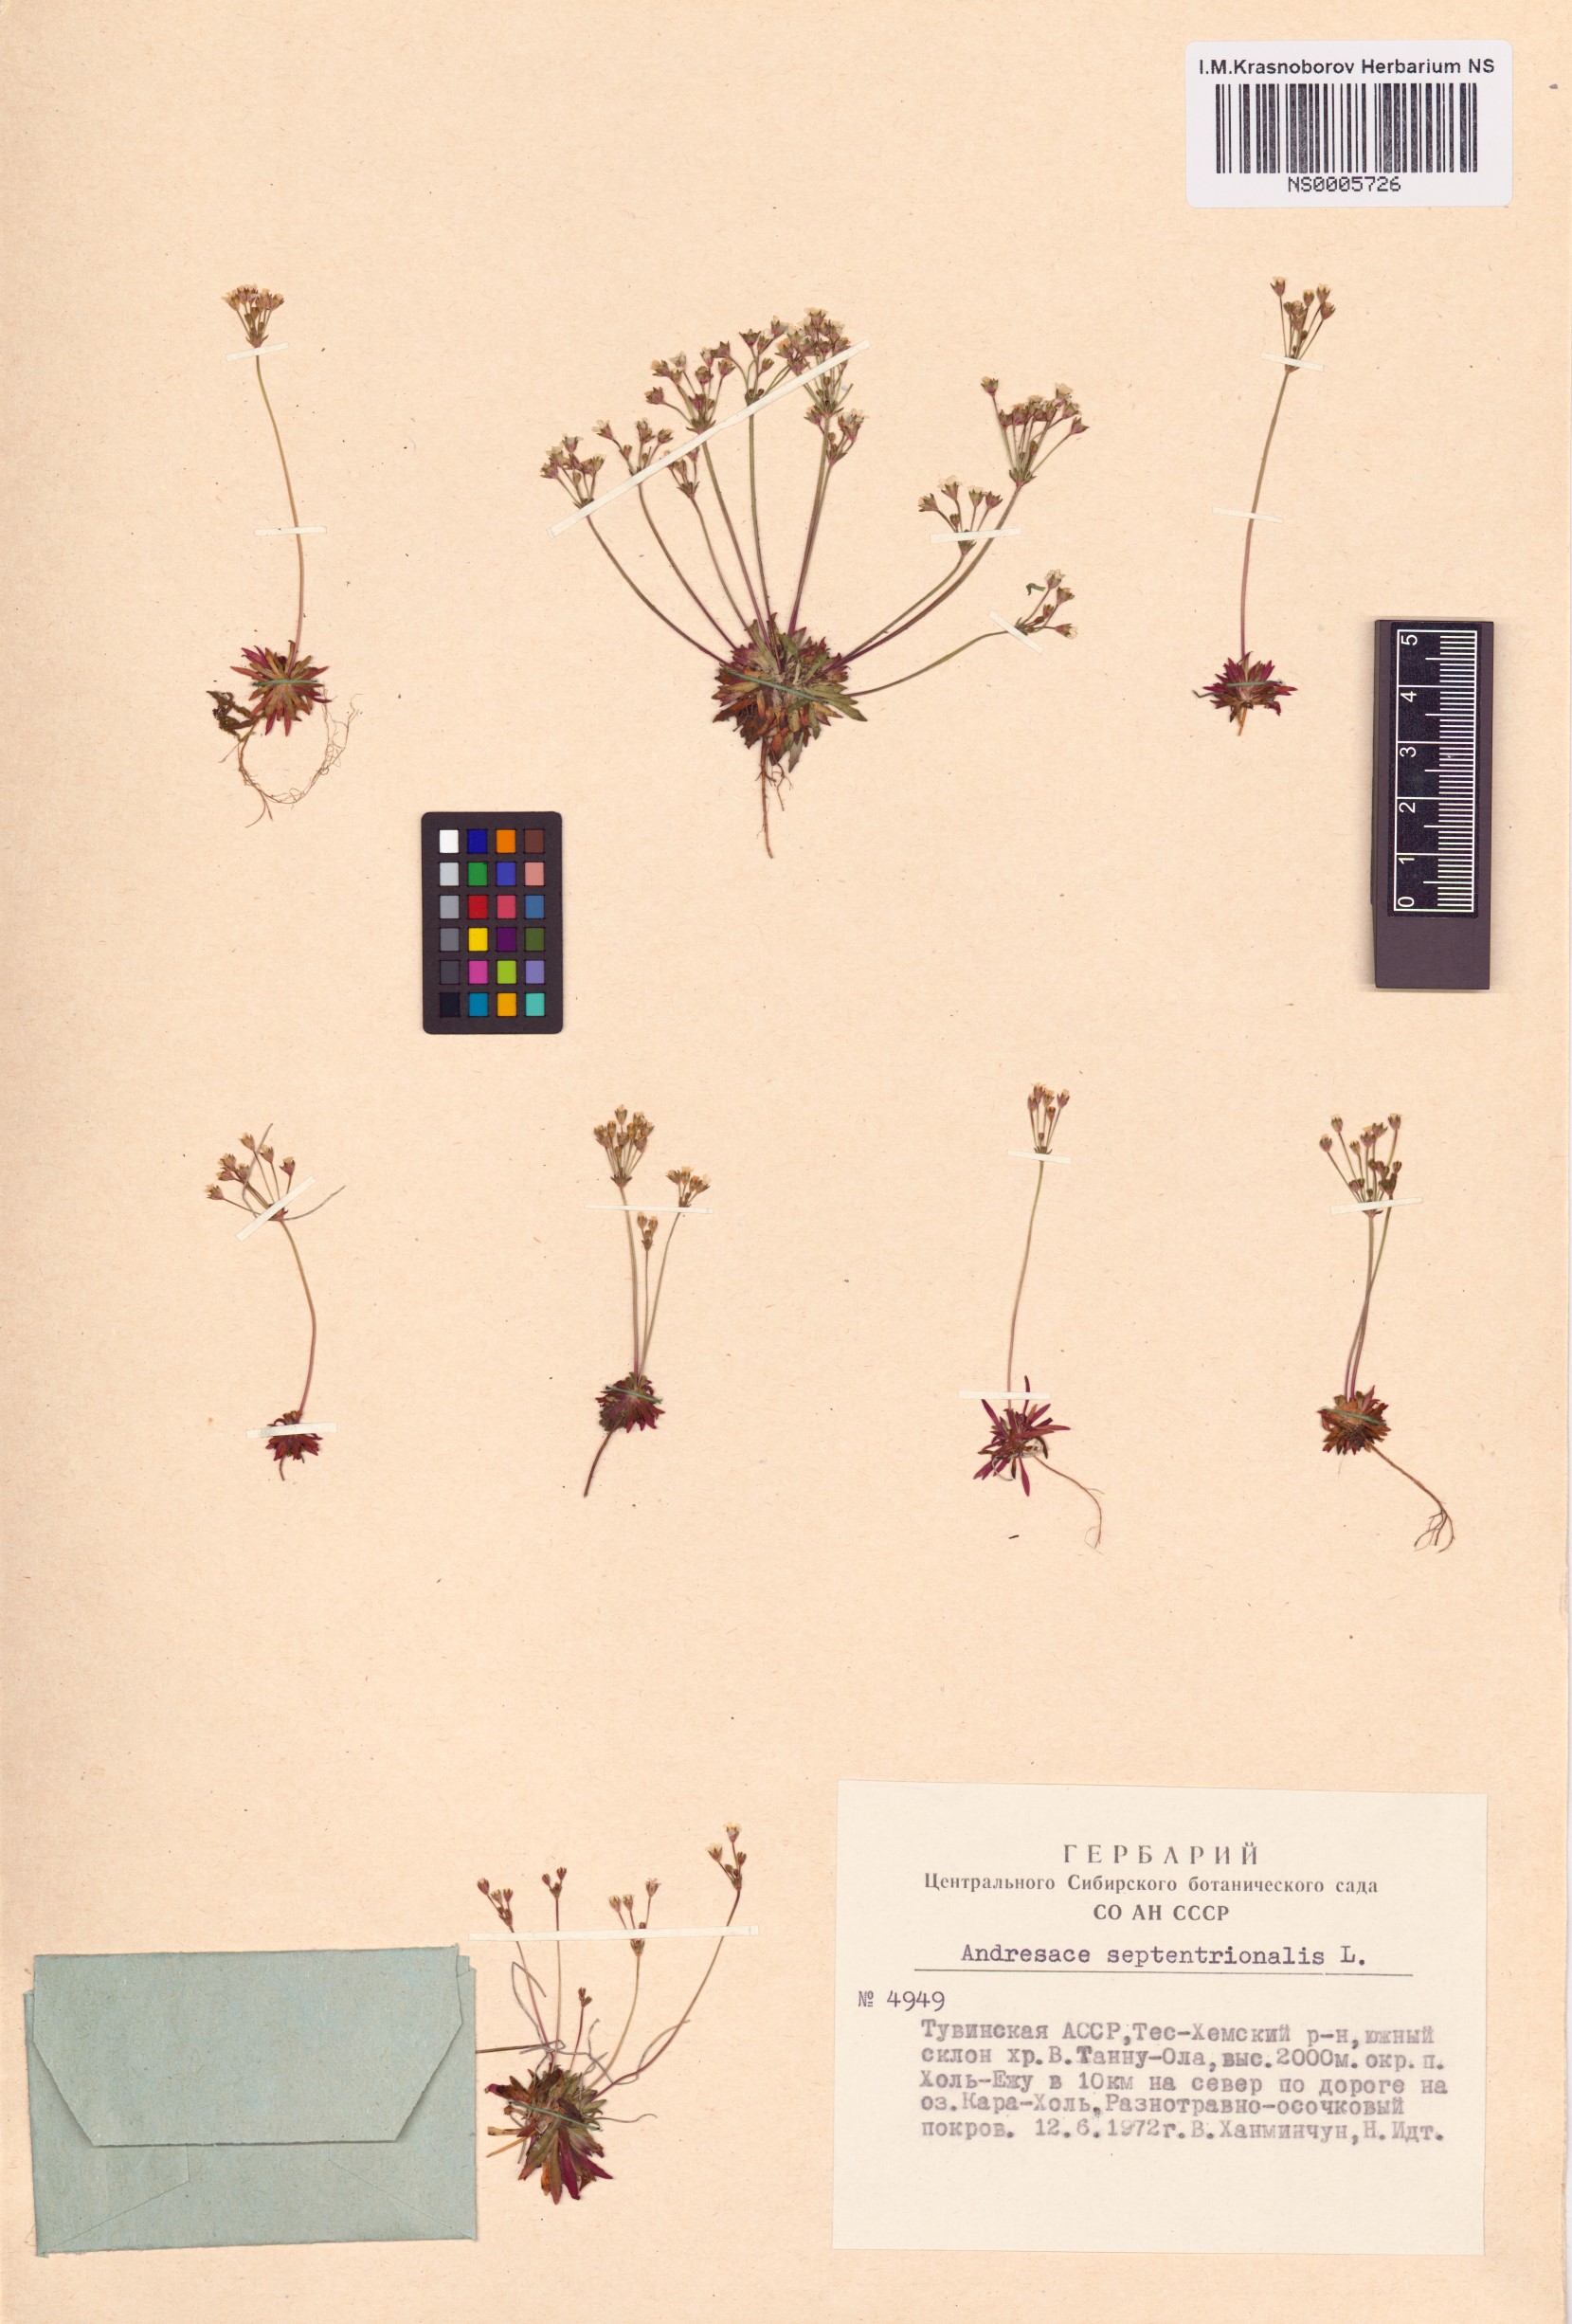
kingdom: Plantae
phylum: Tracheophyta
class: Magnoliopsida
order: Ericales
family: Primulaceae
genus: Androsace
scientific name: Androsace septentrionalis
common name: Hairy northern fairy-candelabra
